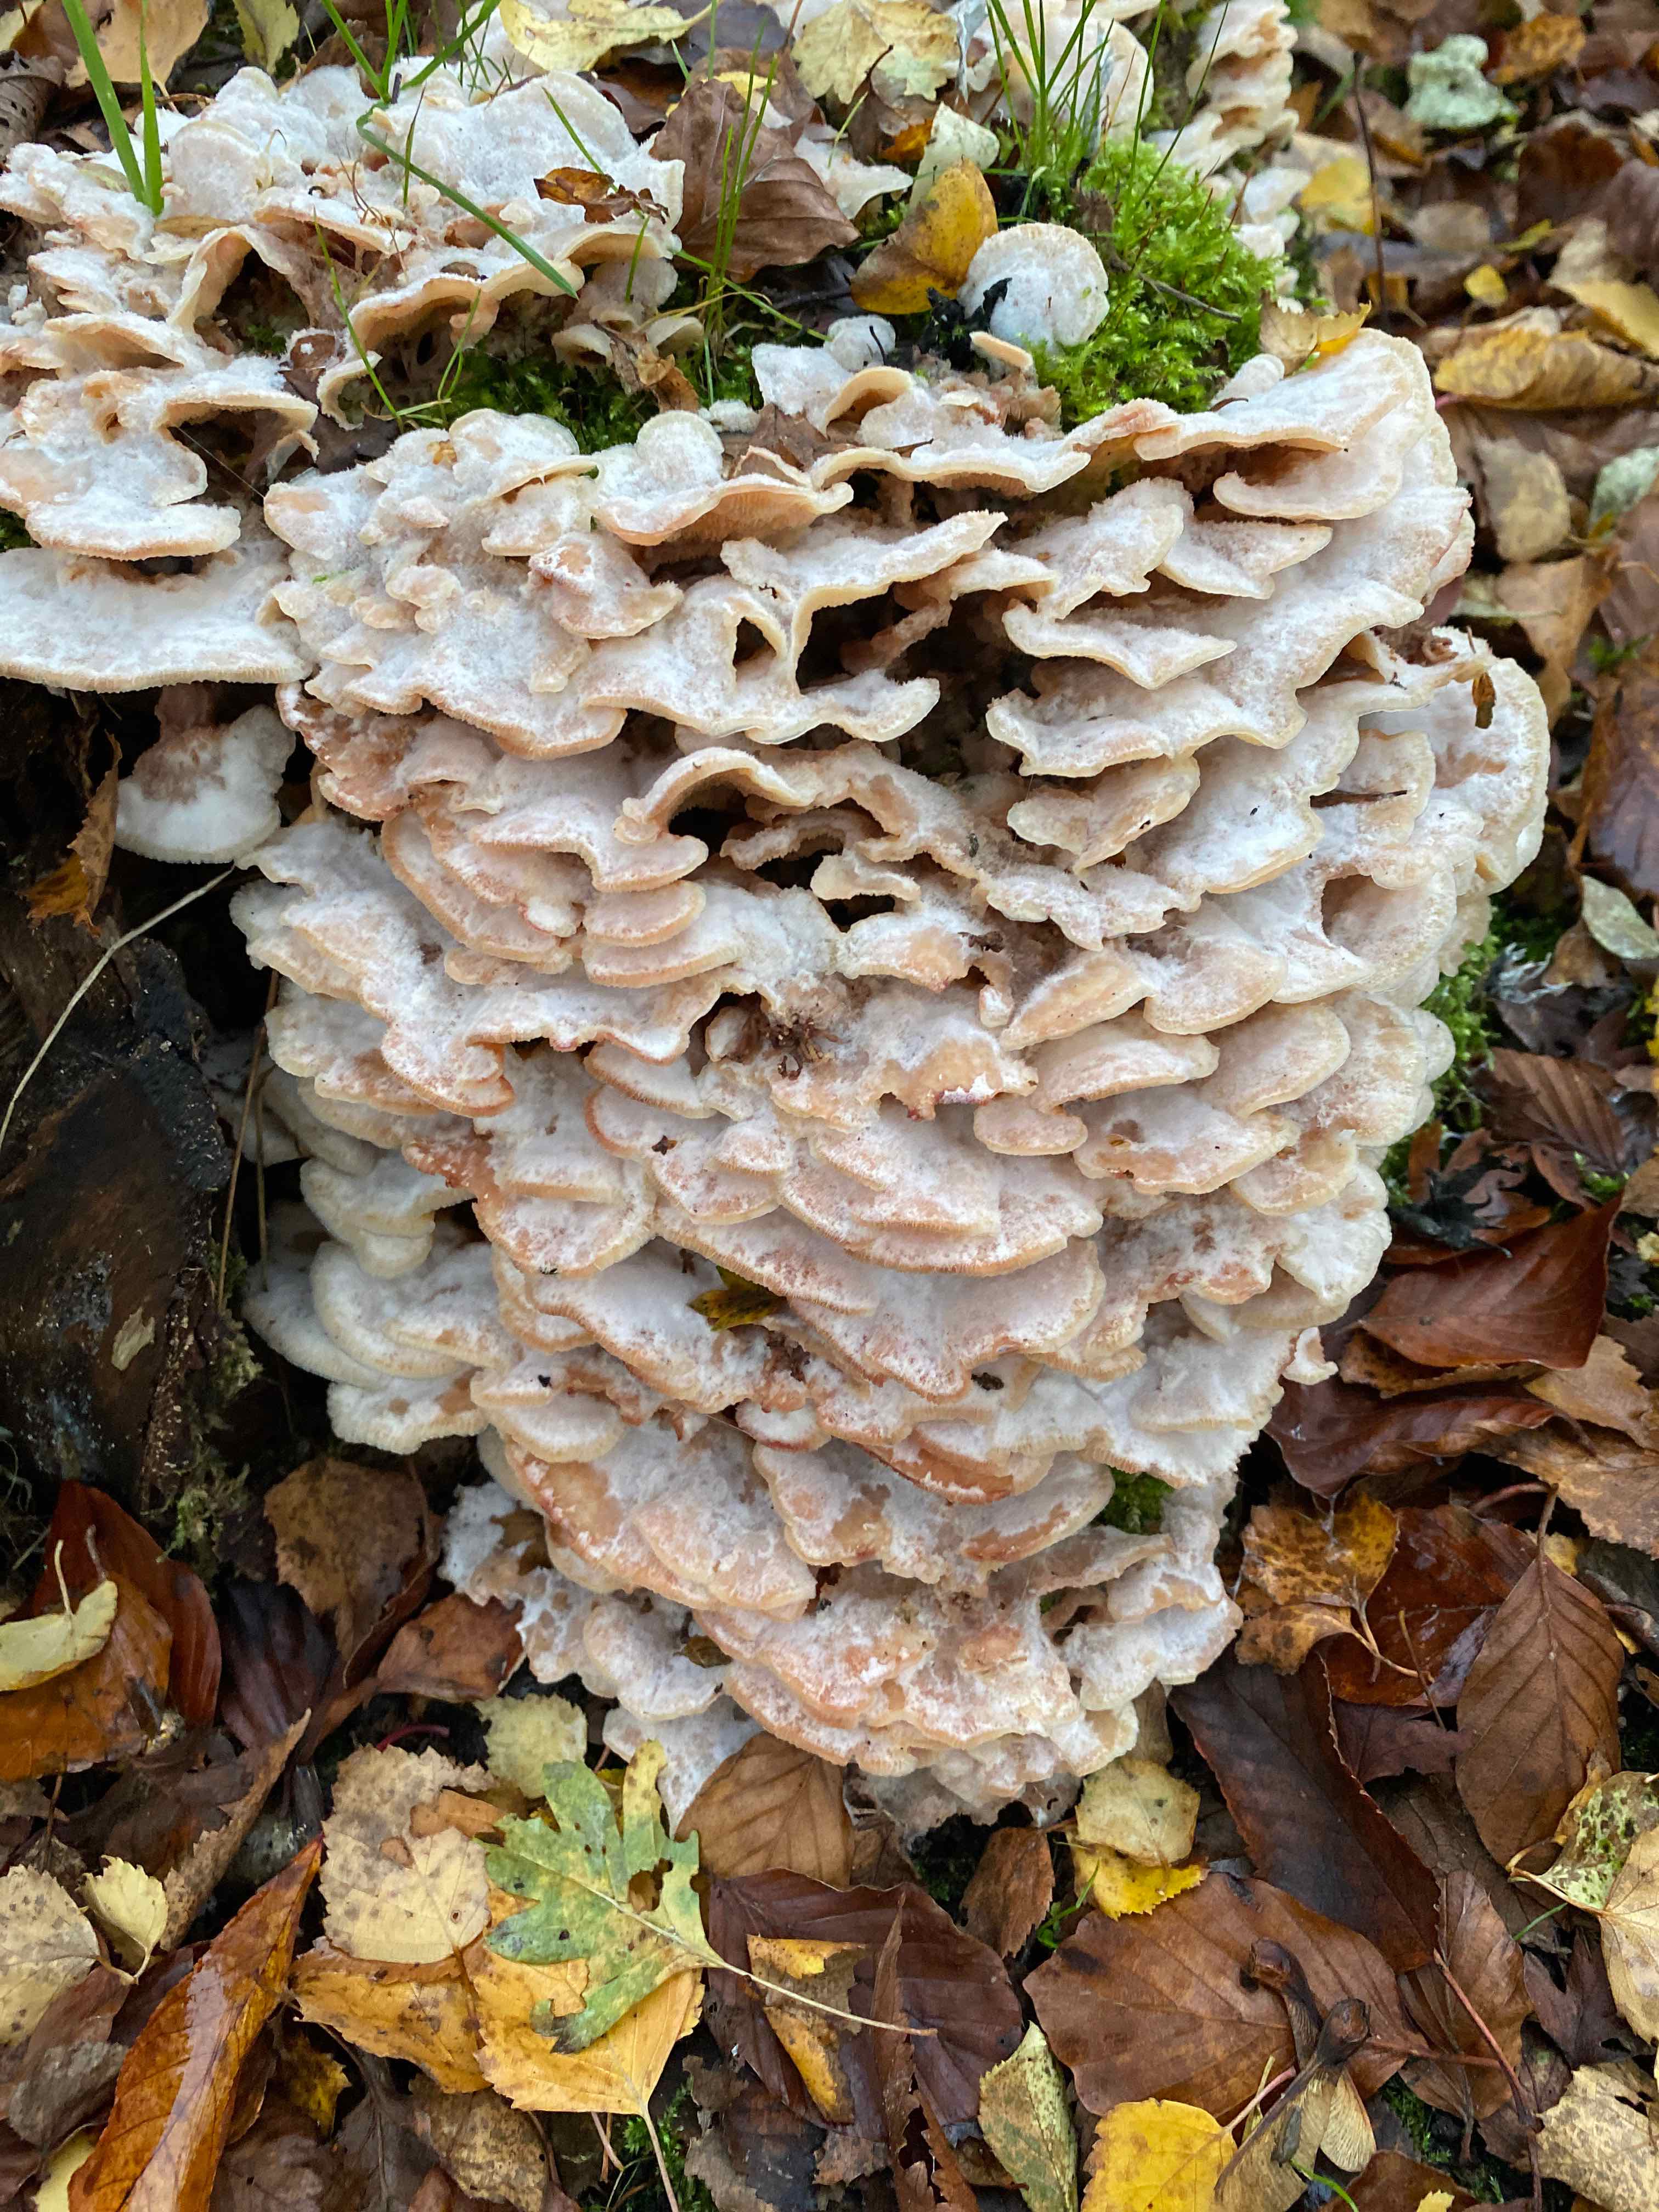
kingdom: Fungi
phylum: Basidiomycota
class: Agaricomycetes
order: Polyporales
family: Meruliaceae
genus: Phlebia
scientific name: Phlebia tremellosa
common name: bævrende åresvamp
